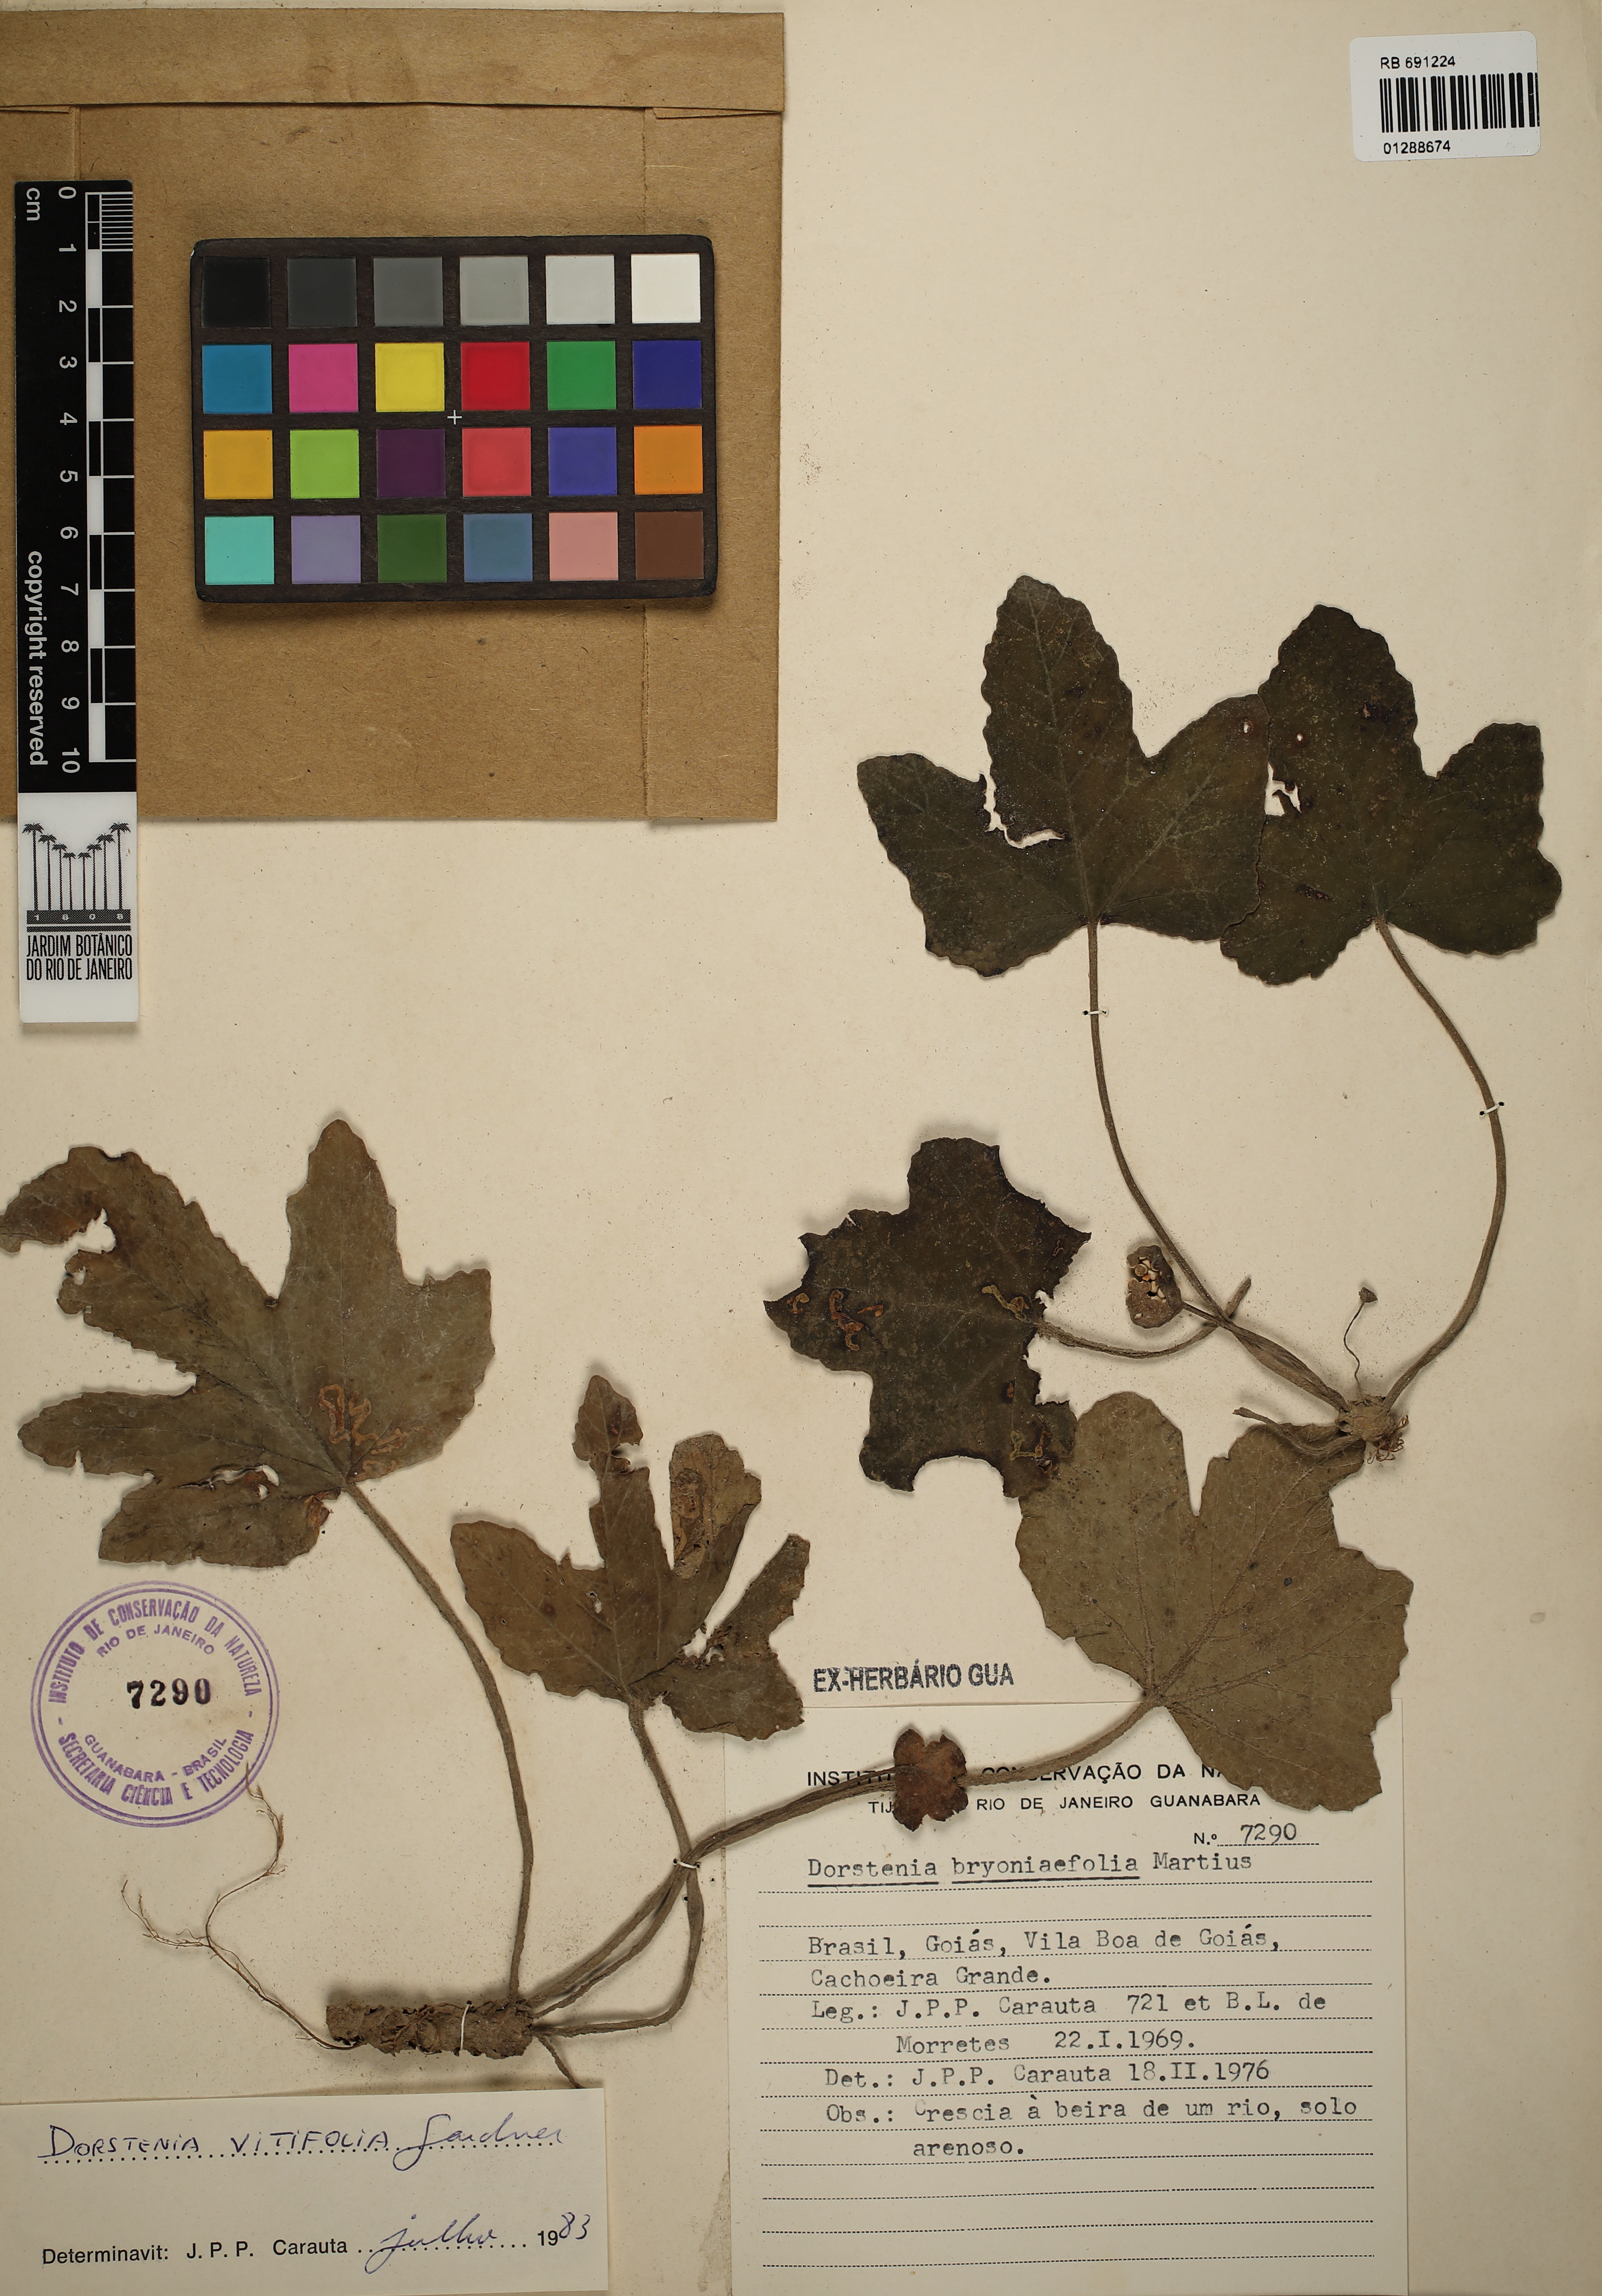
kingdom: Plantae
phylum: Tracheophyta
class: Magnoliopsida
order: Rosales
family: Moraceae
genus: Dorstenia
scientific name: Dorstenia cayapia
